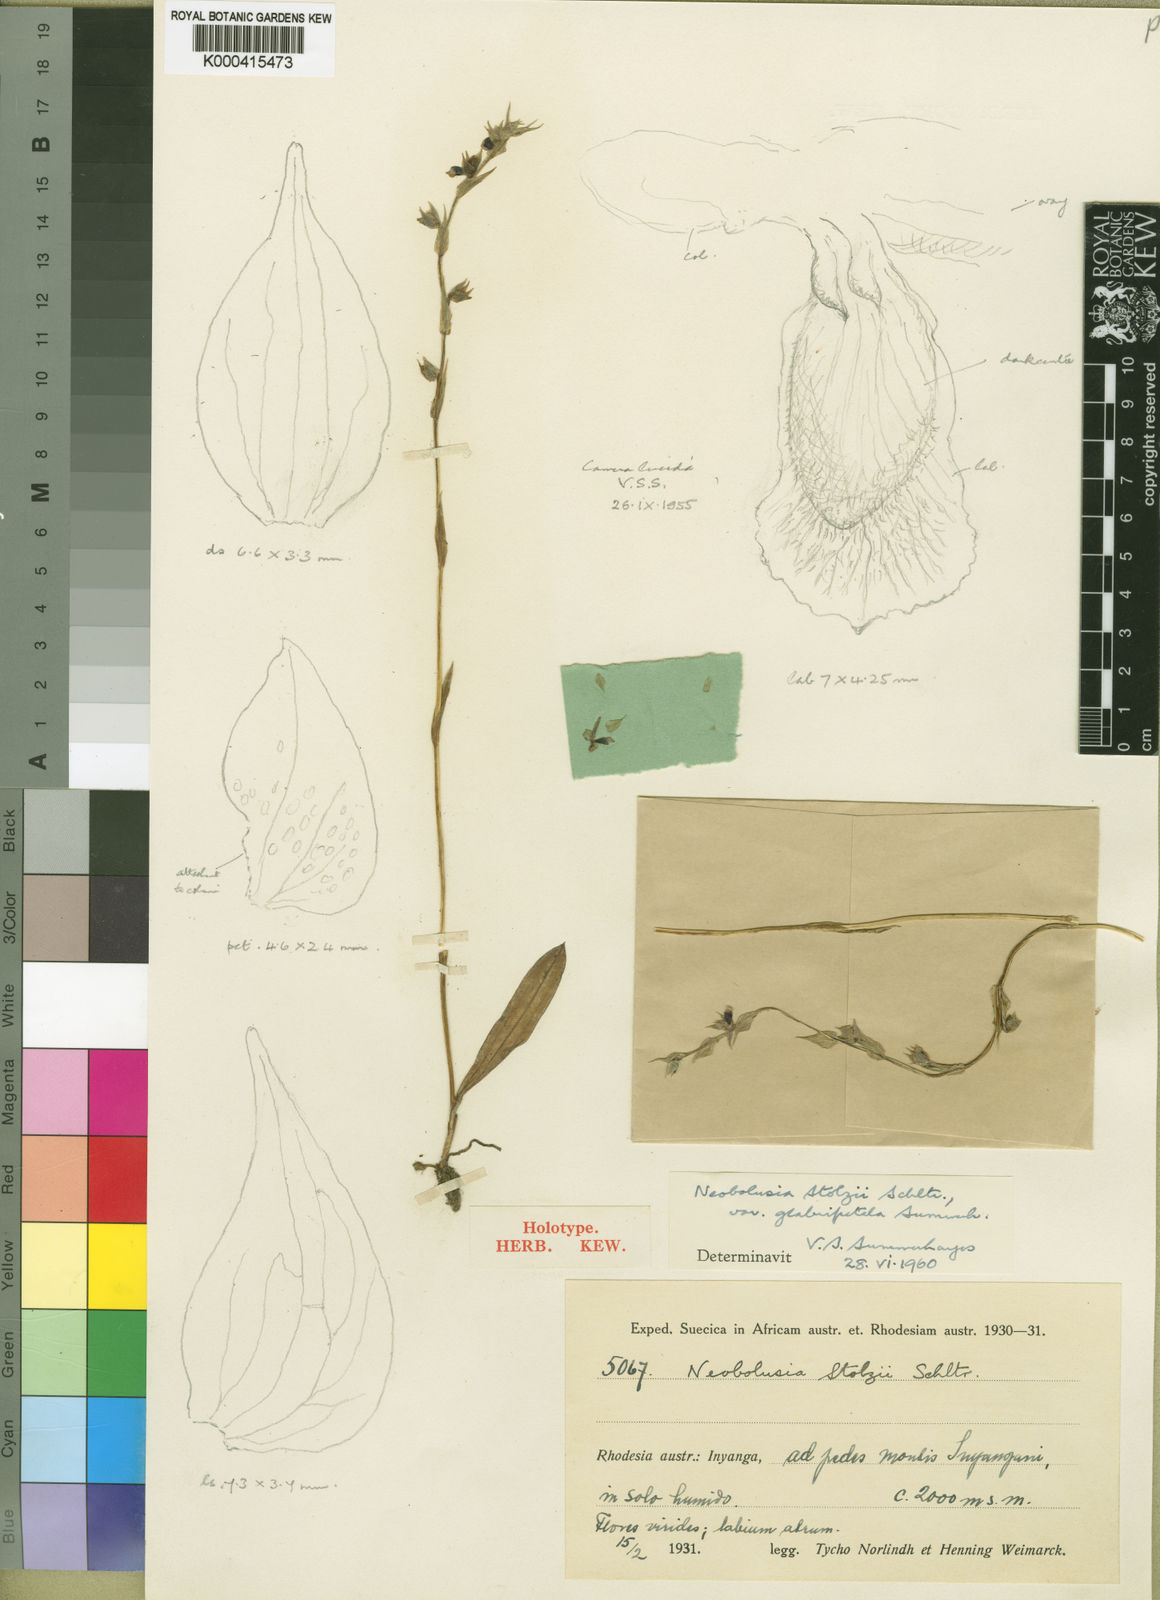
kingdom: Plantae
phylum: Tracheophyta
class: Liliopsida
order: Asparagales
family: Orchidaceae
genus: Neobolusia
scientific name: Neobolusia stolzii
